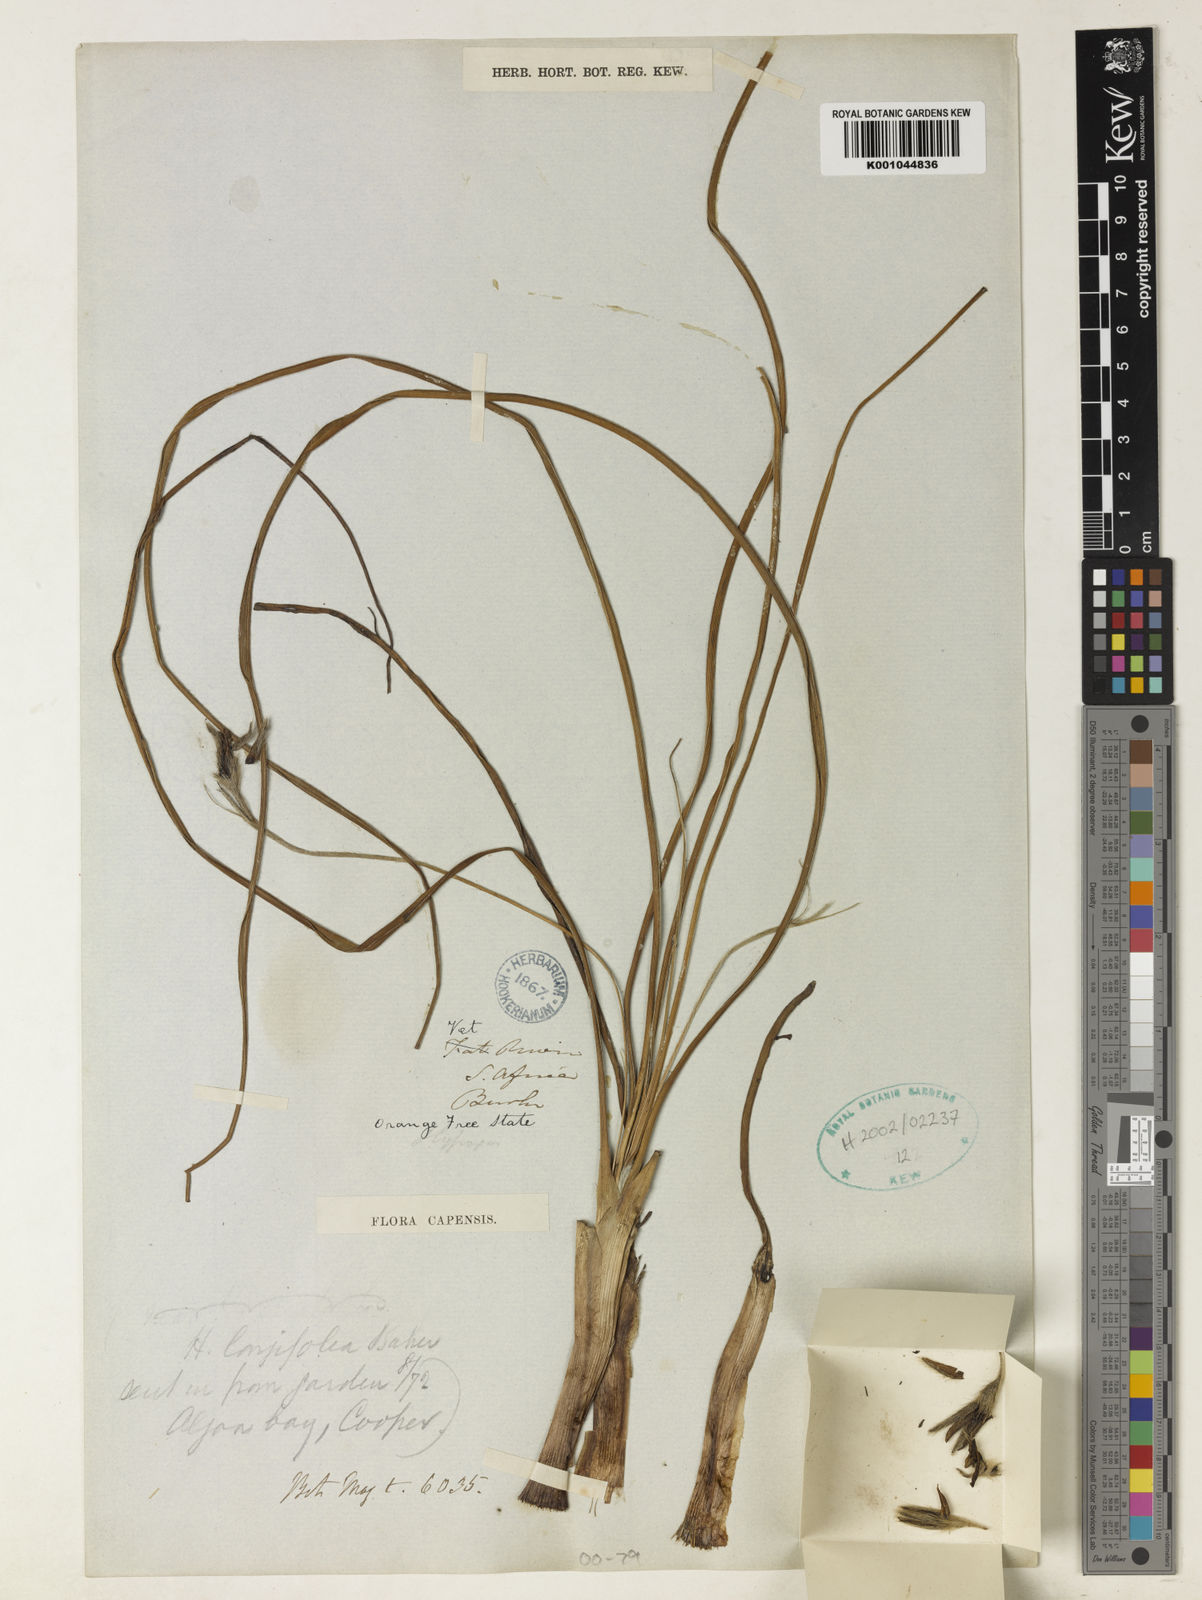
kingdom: Plantae
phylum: Tracheophyta
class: Liliopsida
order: Asparagales
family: Hypoxidaceae
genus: Hypoxis
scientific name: Hypoxis longifolia
